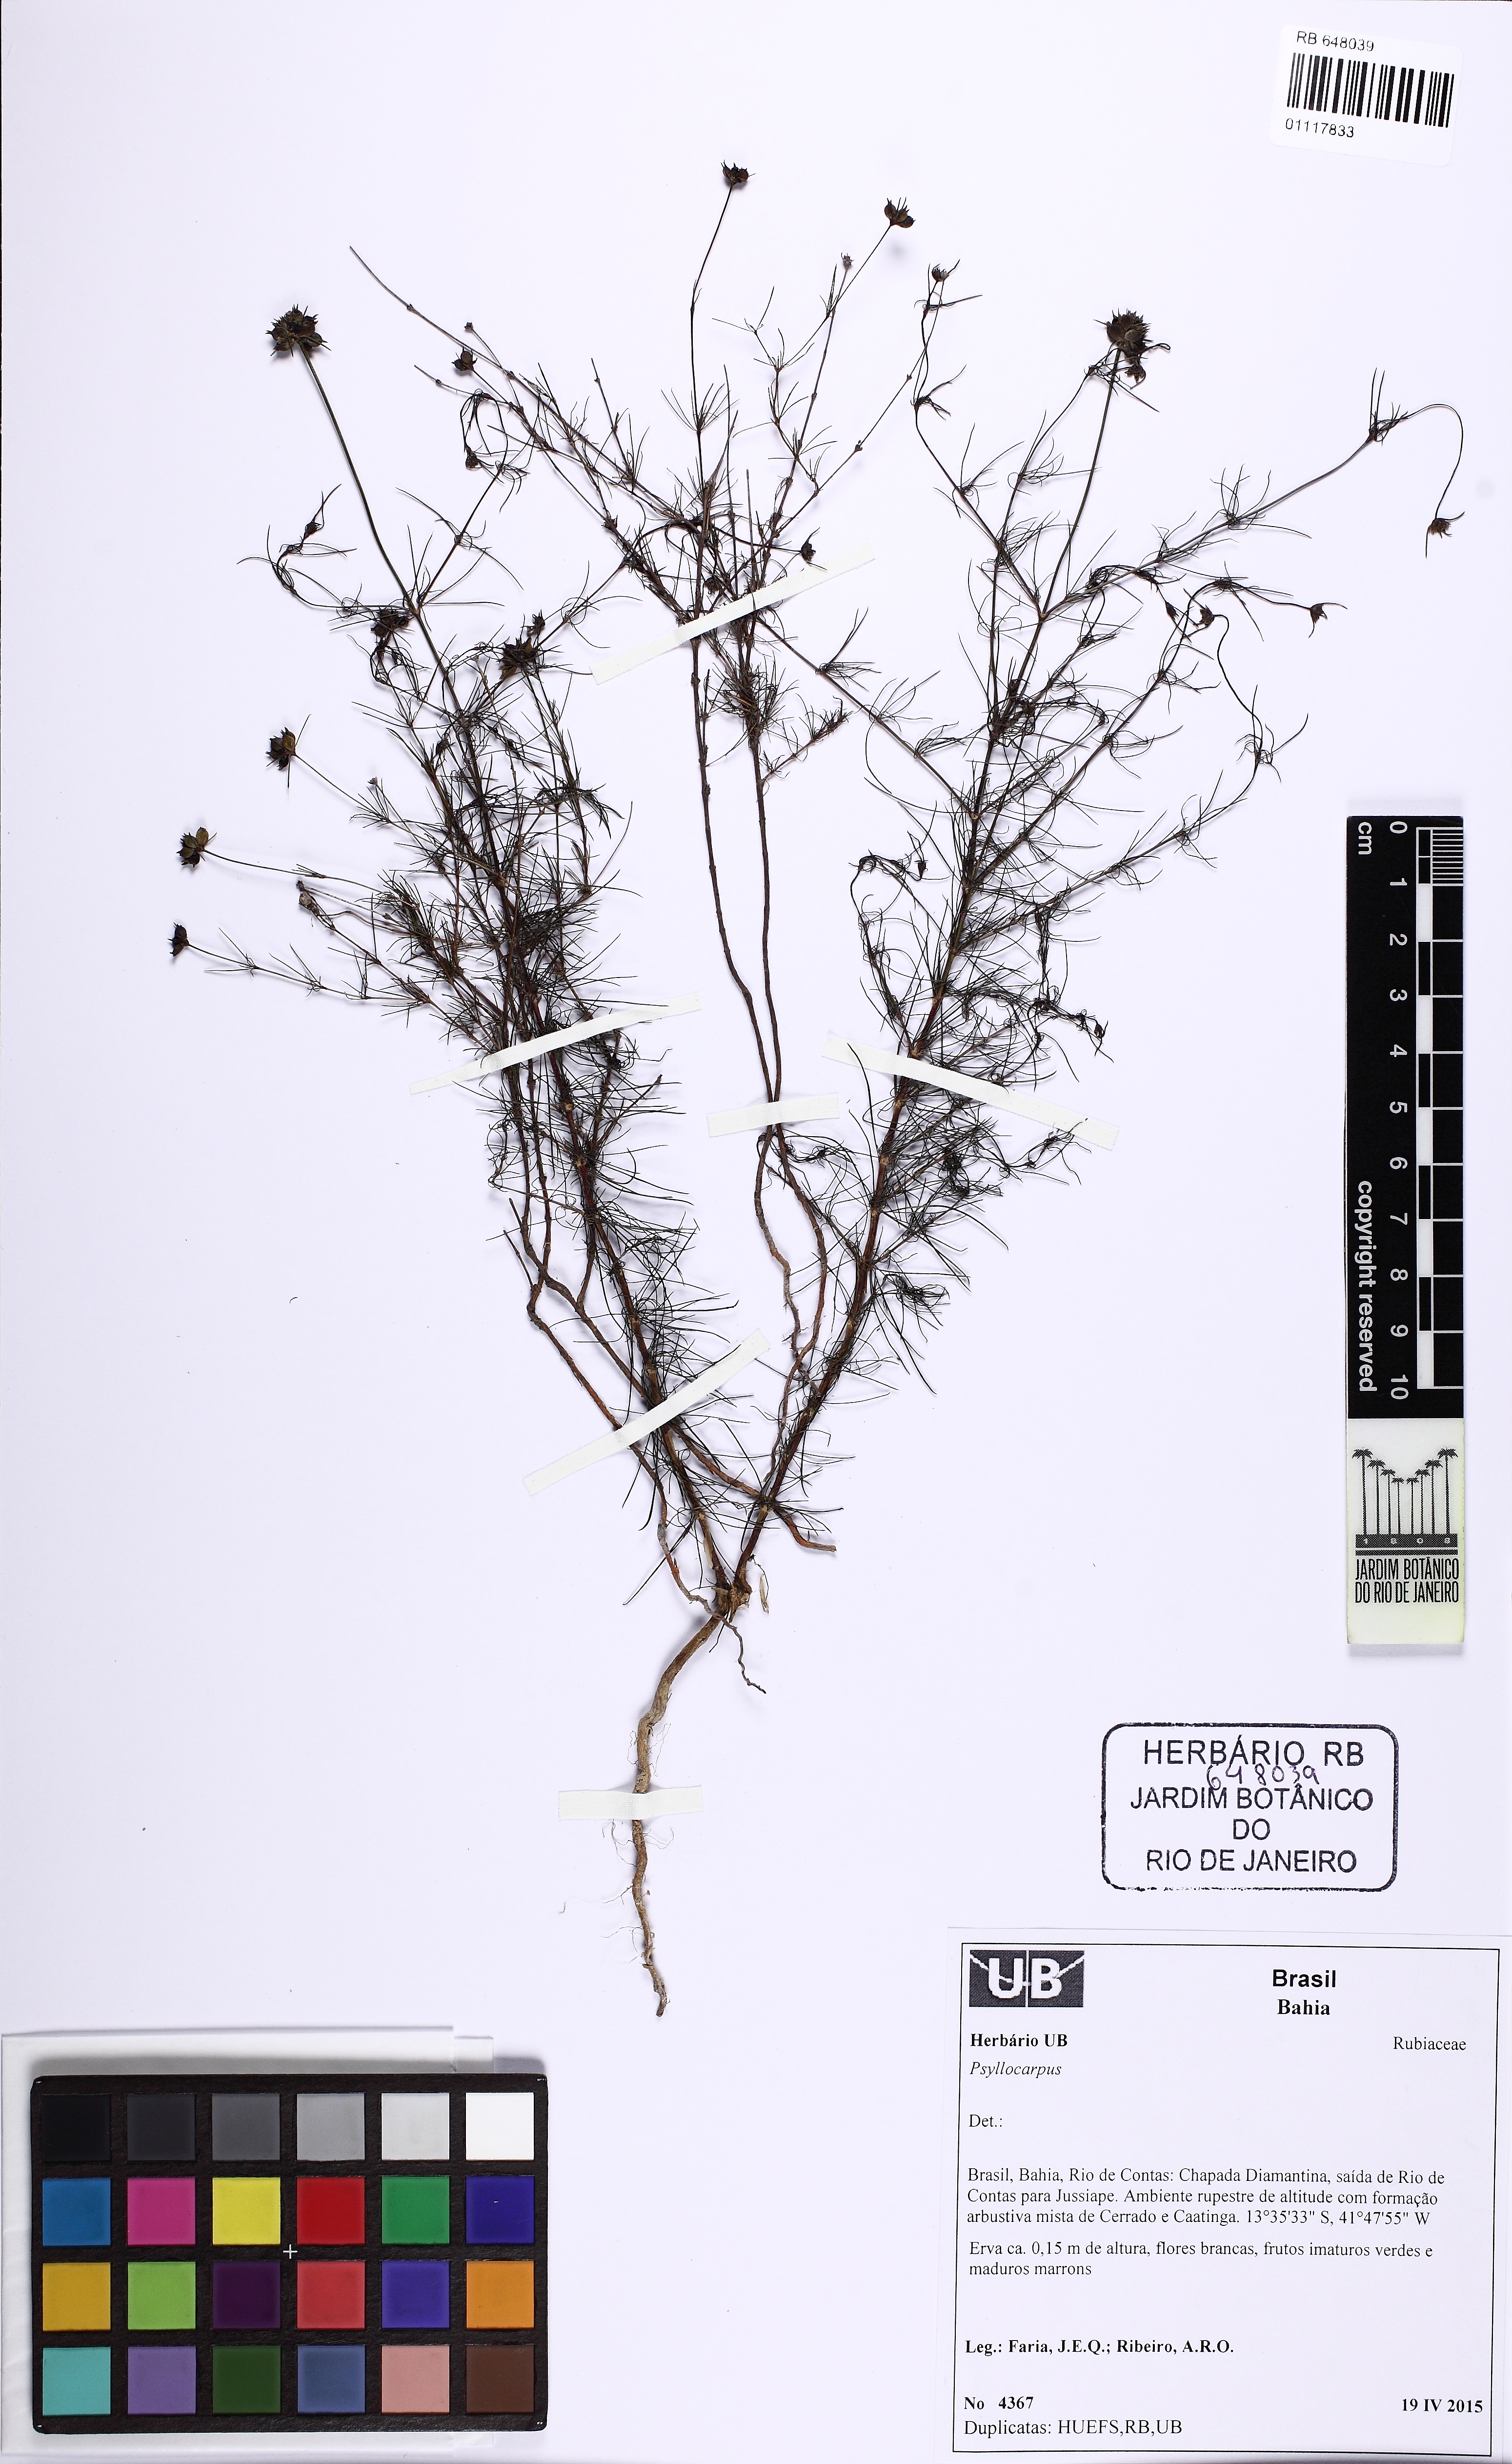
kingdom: Plantae
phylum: Tracheophyta
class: Magnoliopsida
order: Gentianales
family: Rubiaceae
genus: Psyllocarpus
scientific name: Psyllocarpus
